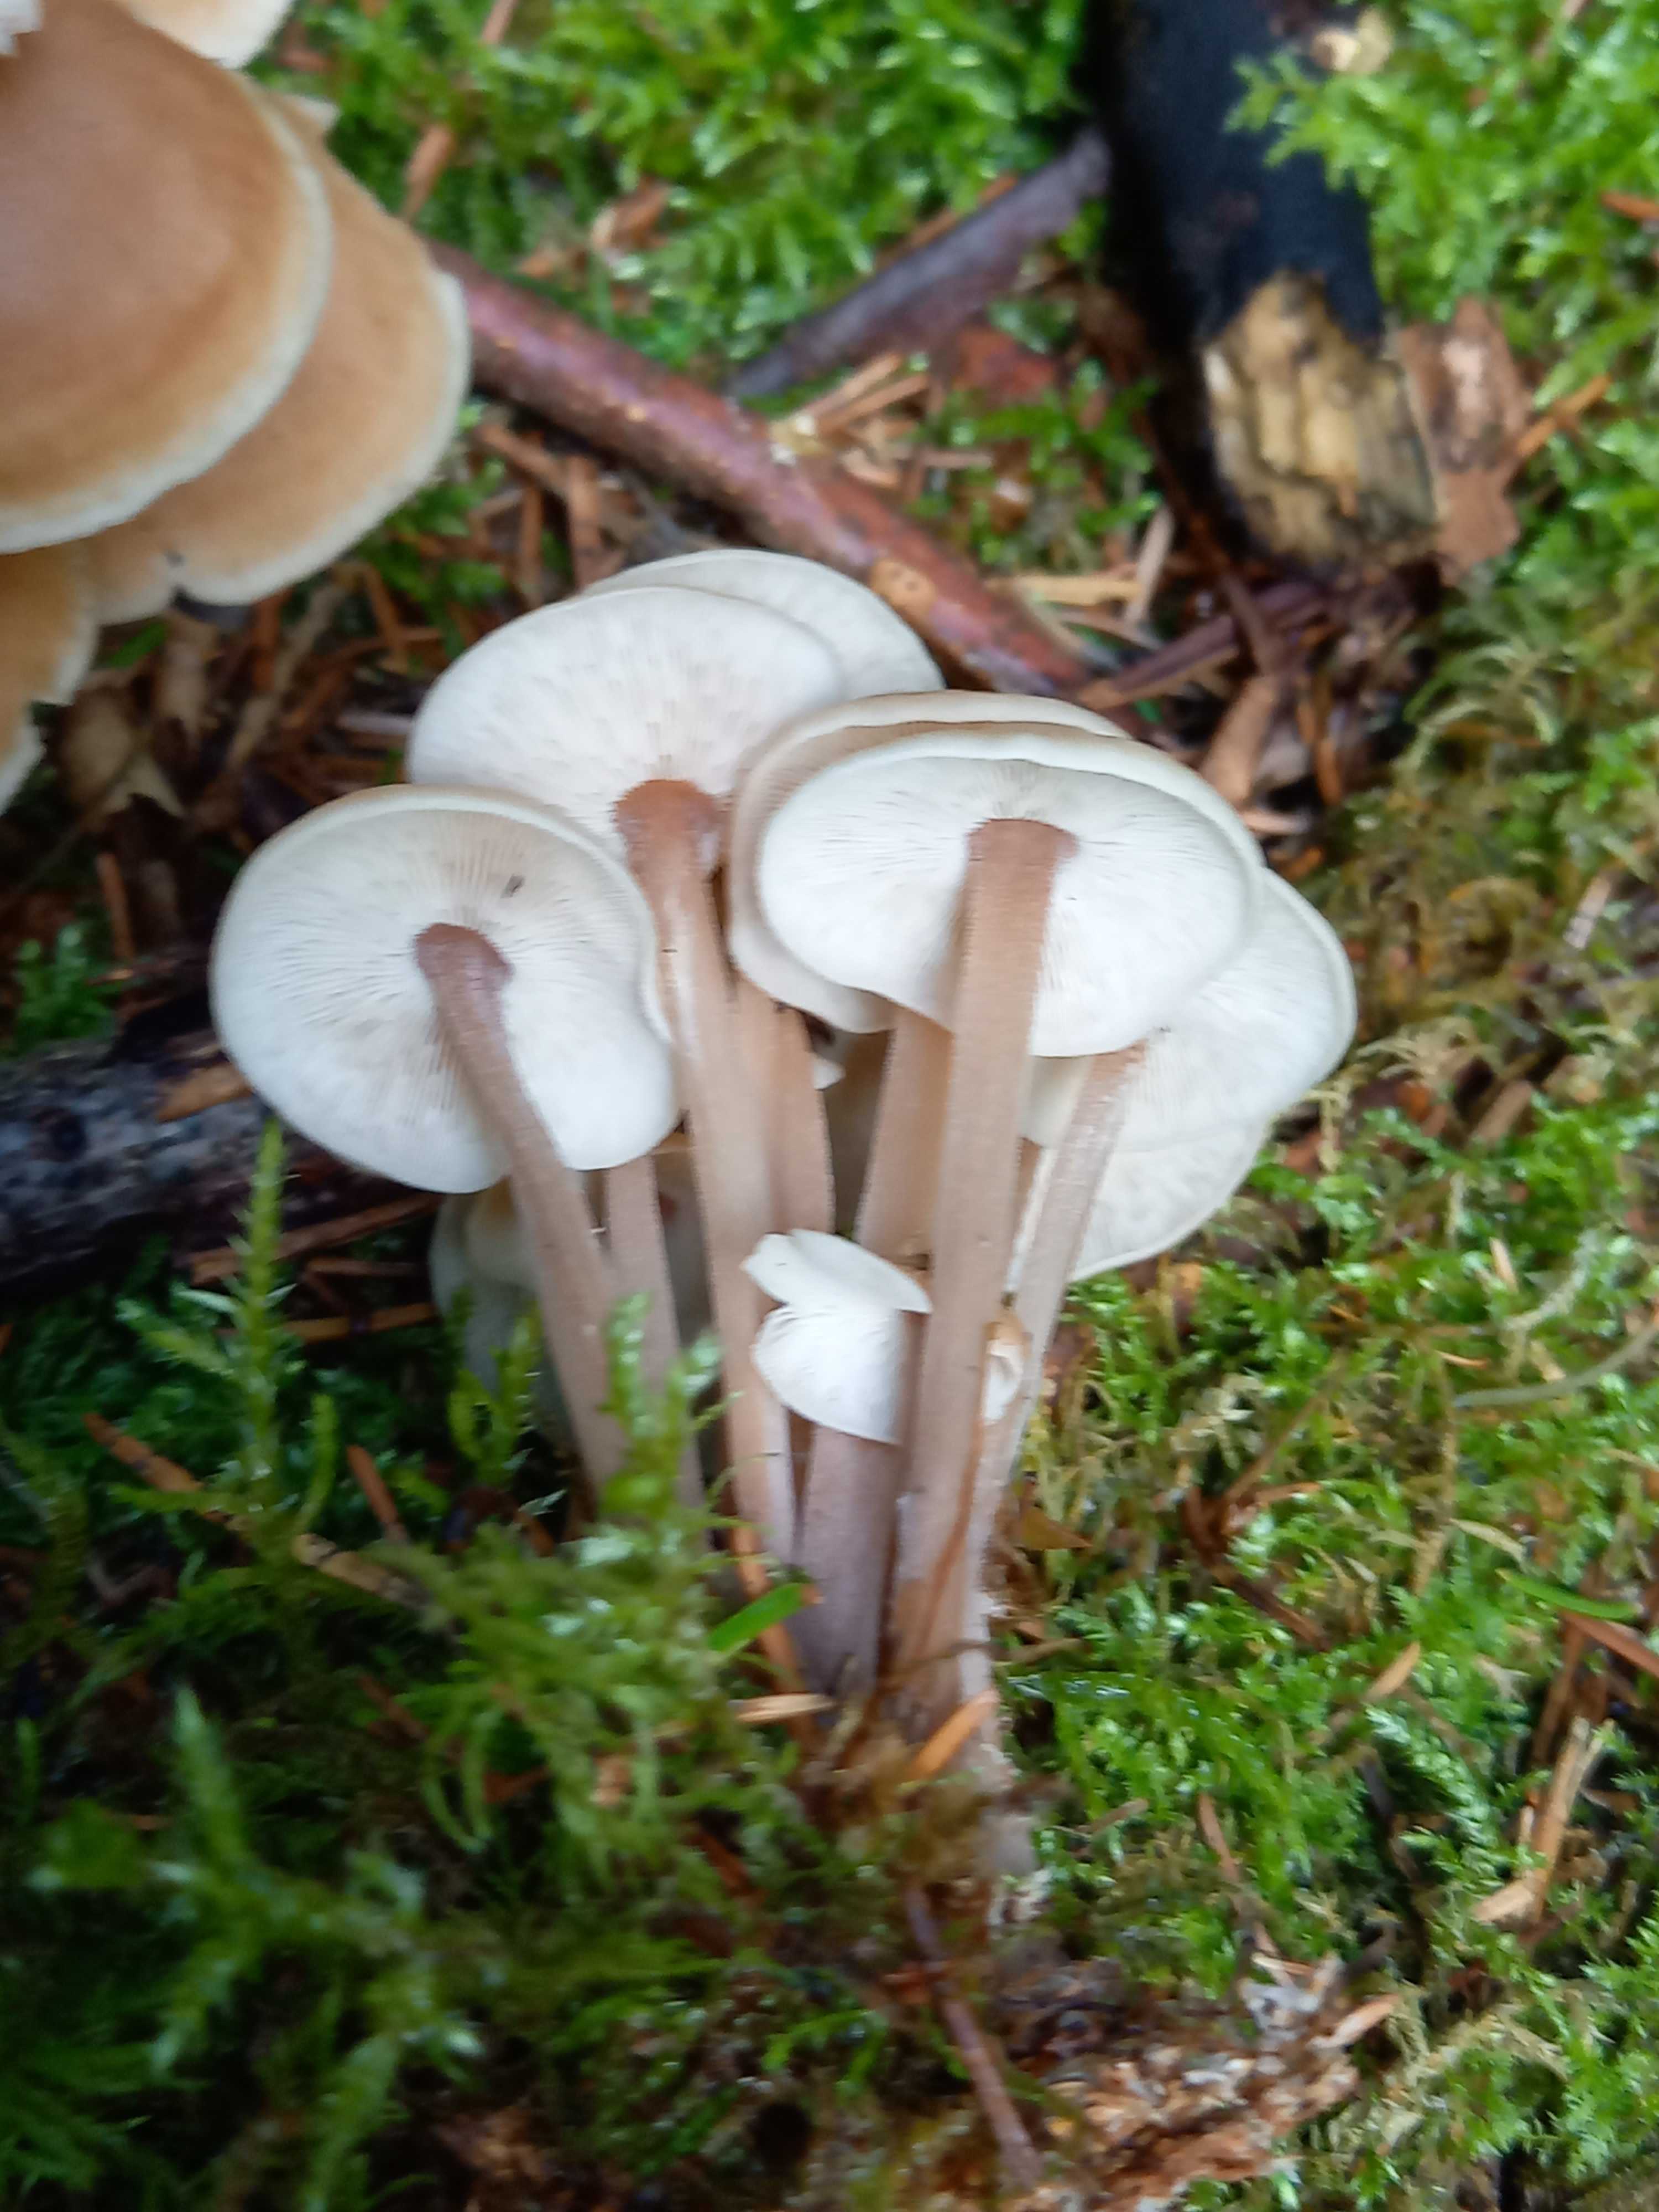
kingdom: Fungi
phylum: Basidiomycota
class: Agaricomycetes
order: Agaricales
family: Omphalotaceae
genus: Collybiopsis
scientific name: Collybiopsis confluens
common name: knippe-fladhat
